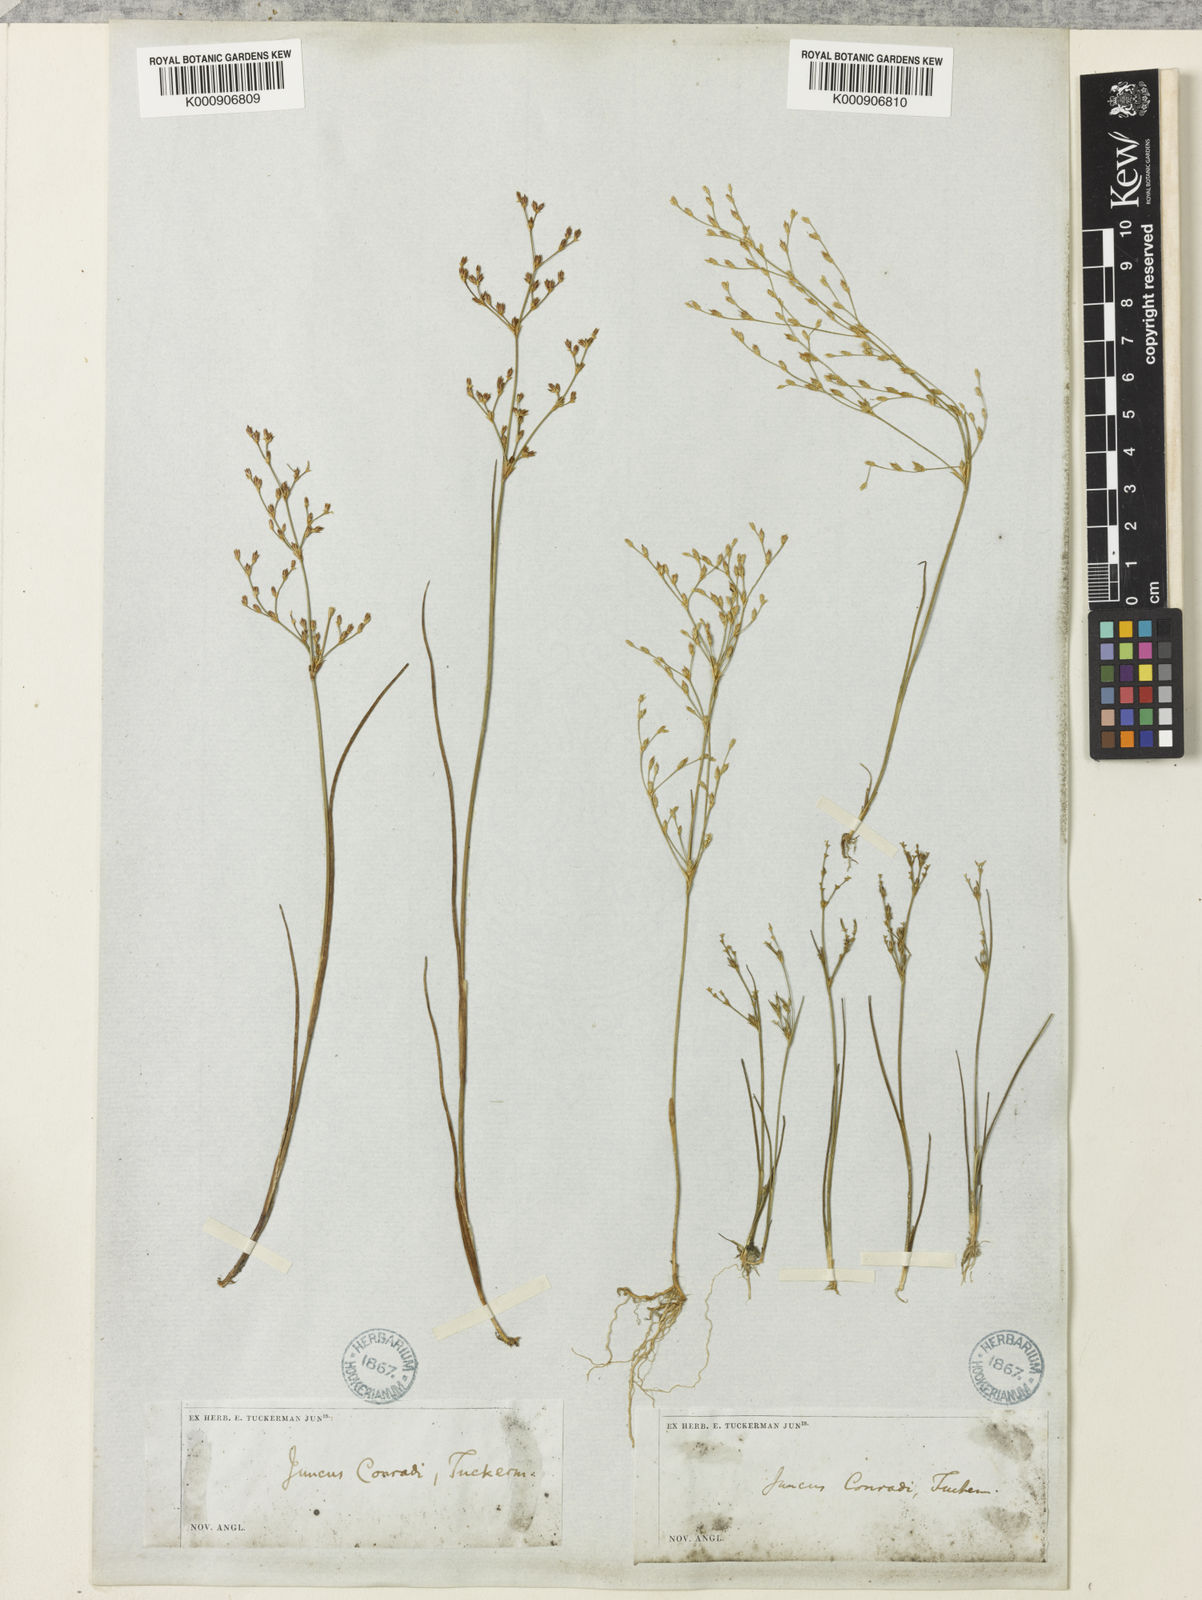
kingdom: Plantae
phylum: Tracheophyta
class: Liliopsida
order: Poales
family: Juncaceae
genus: Juncus
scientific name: Juncus pelocarpus
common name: Brown-fruited rush
